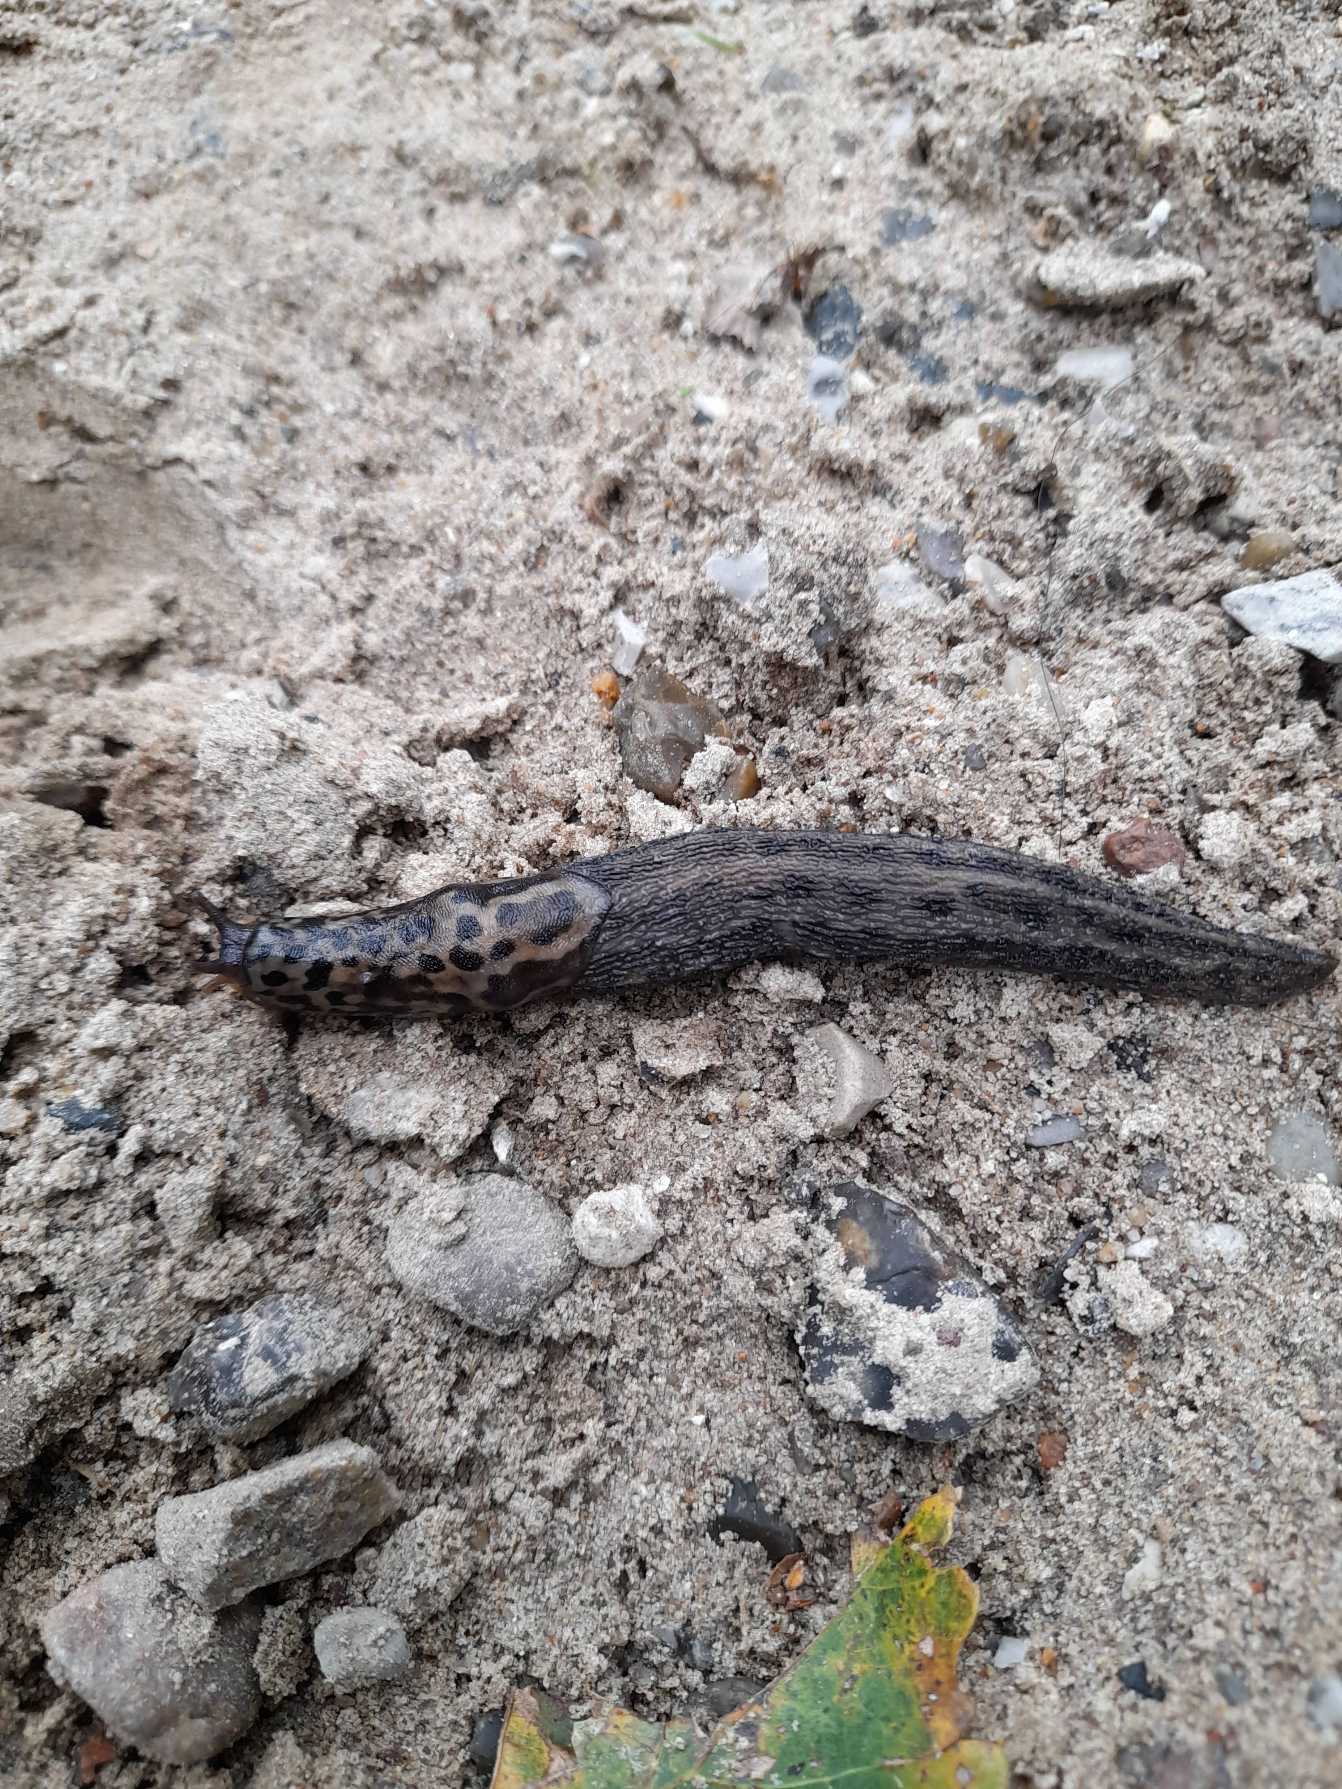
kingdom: Animalia
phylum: Mollusca
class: Gastropoda
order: Stylommatophora
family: Limacidae
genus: Limax
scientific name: Limax maximus
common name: Pantersnegl
